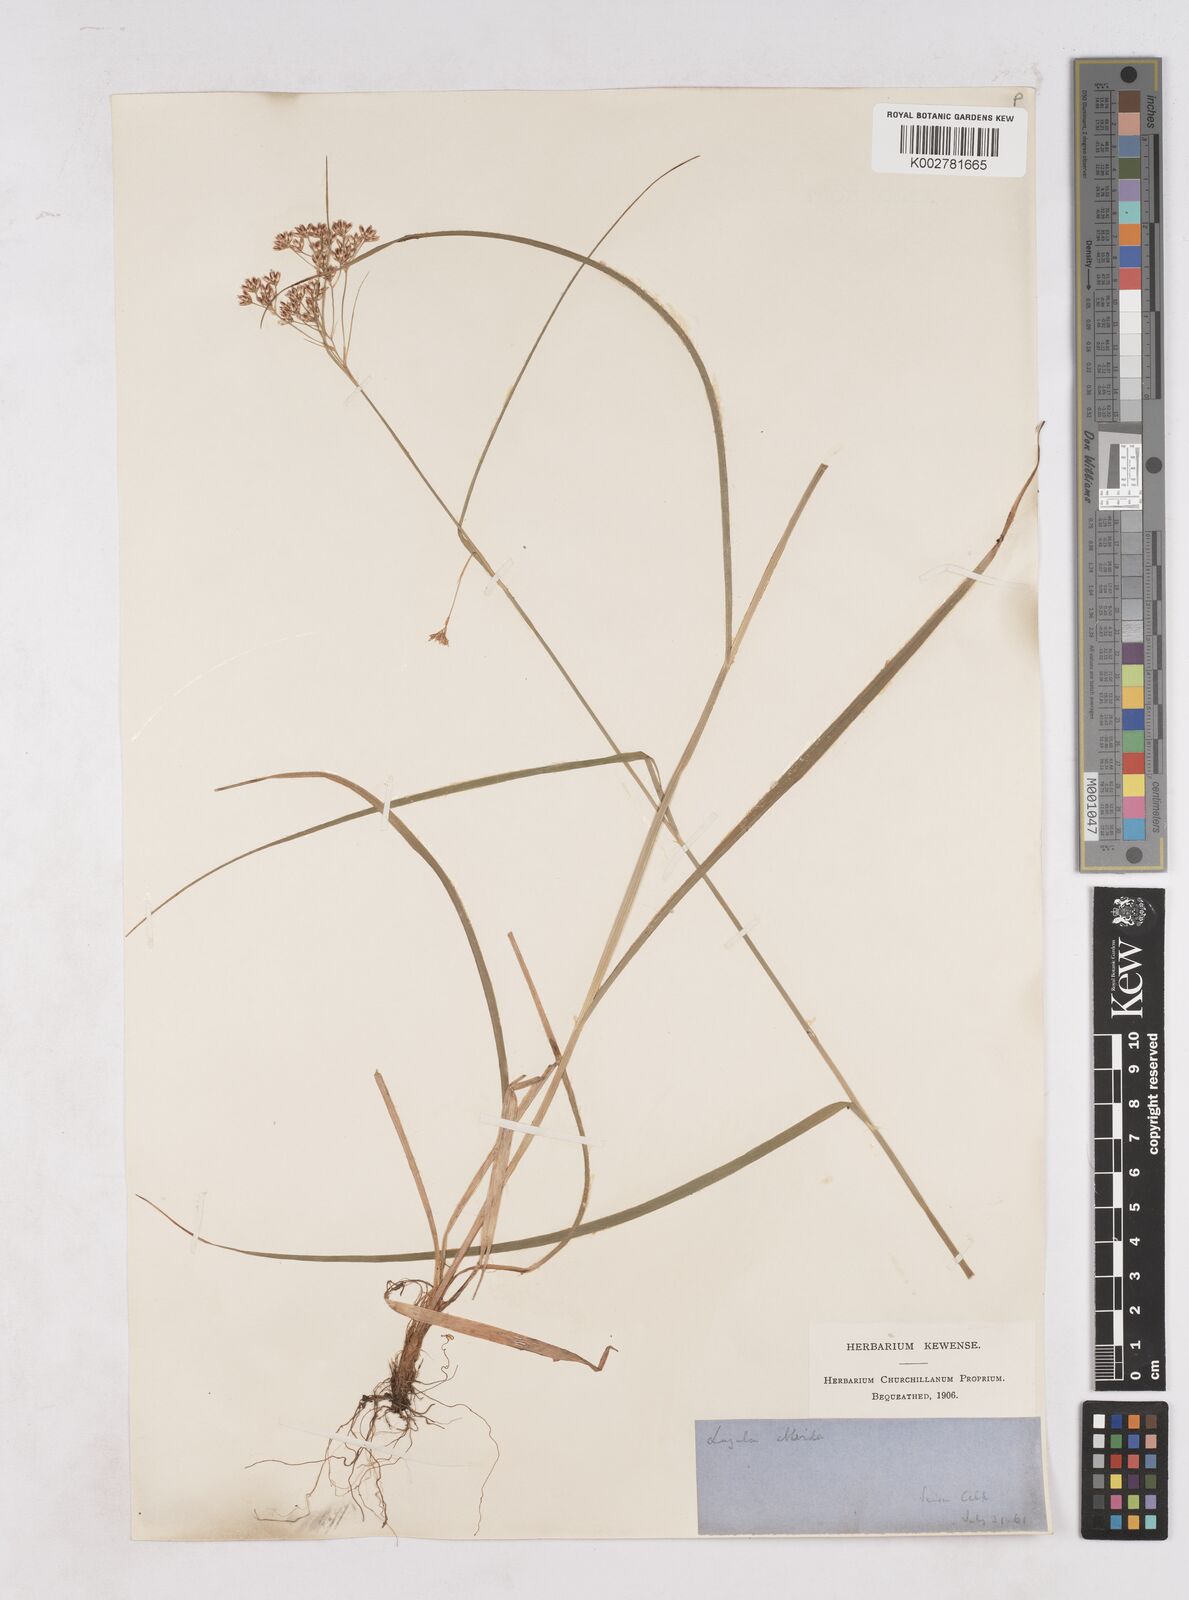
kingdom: Plantae
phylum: Tracheophyta
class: Liliopsida
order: Poales
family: Juncaceae
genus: Luzula
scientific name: Luzula luzuloides
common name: White wood-rush
